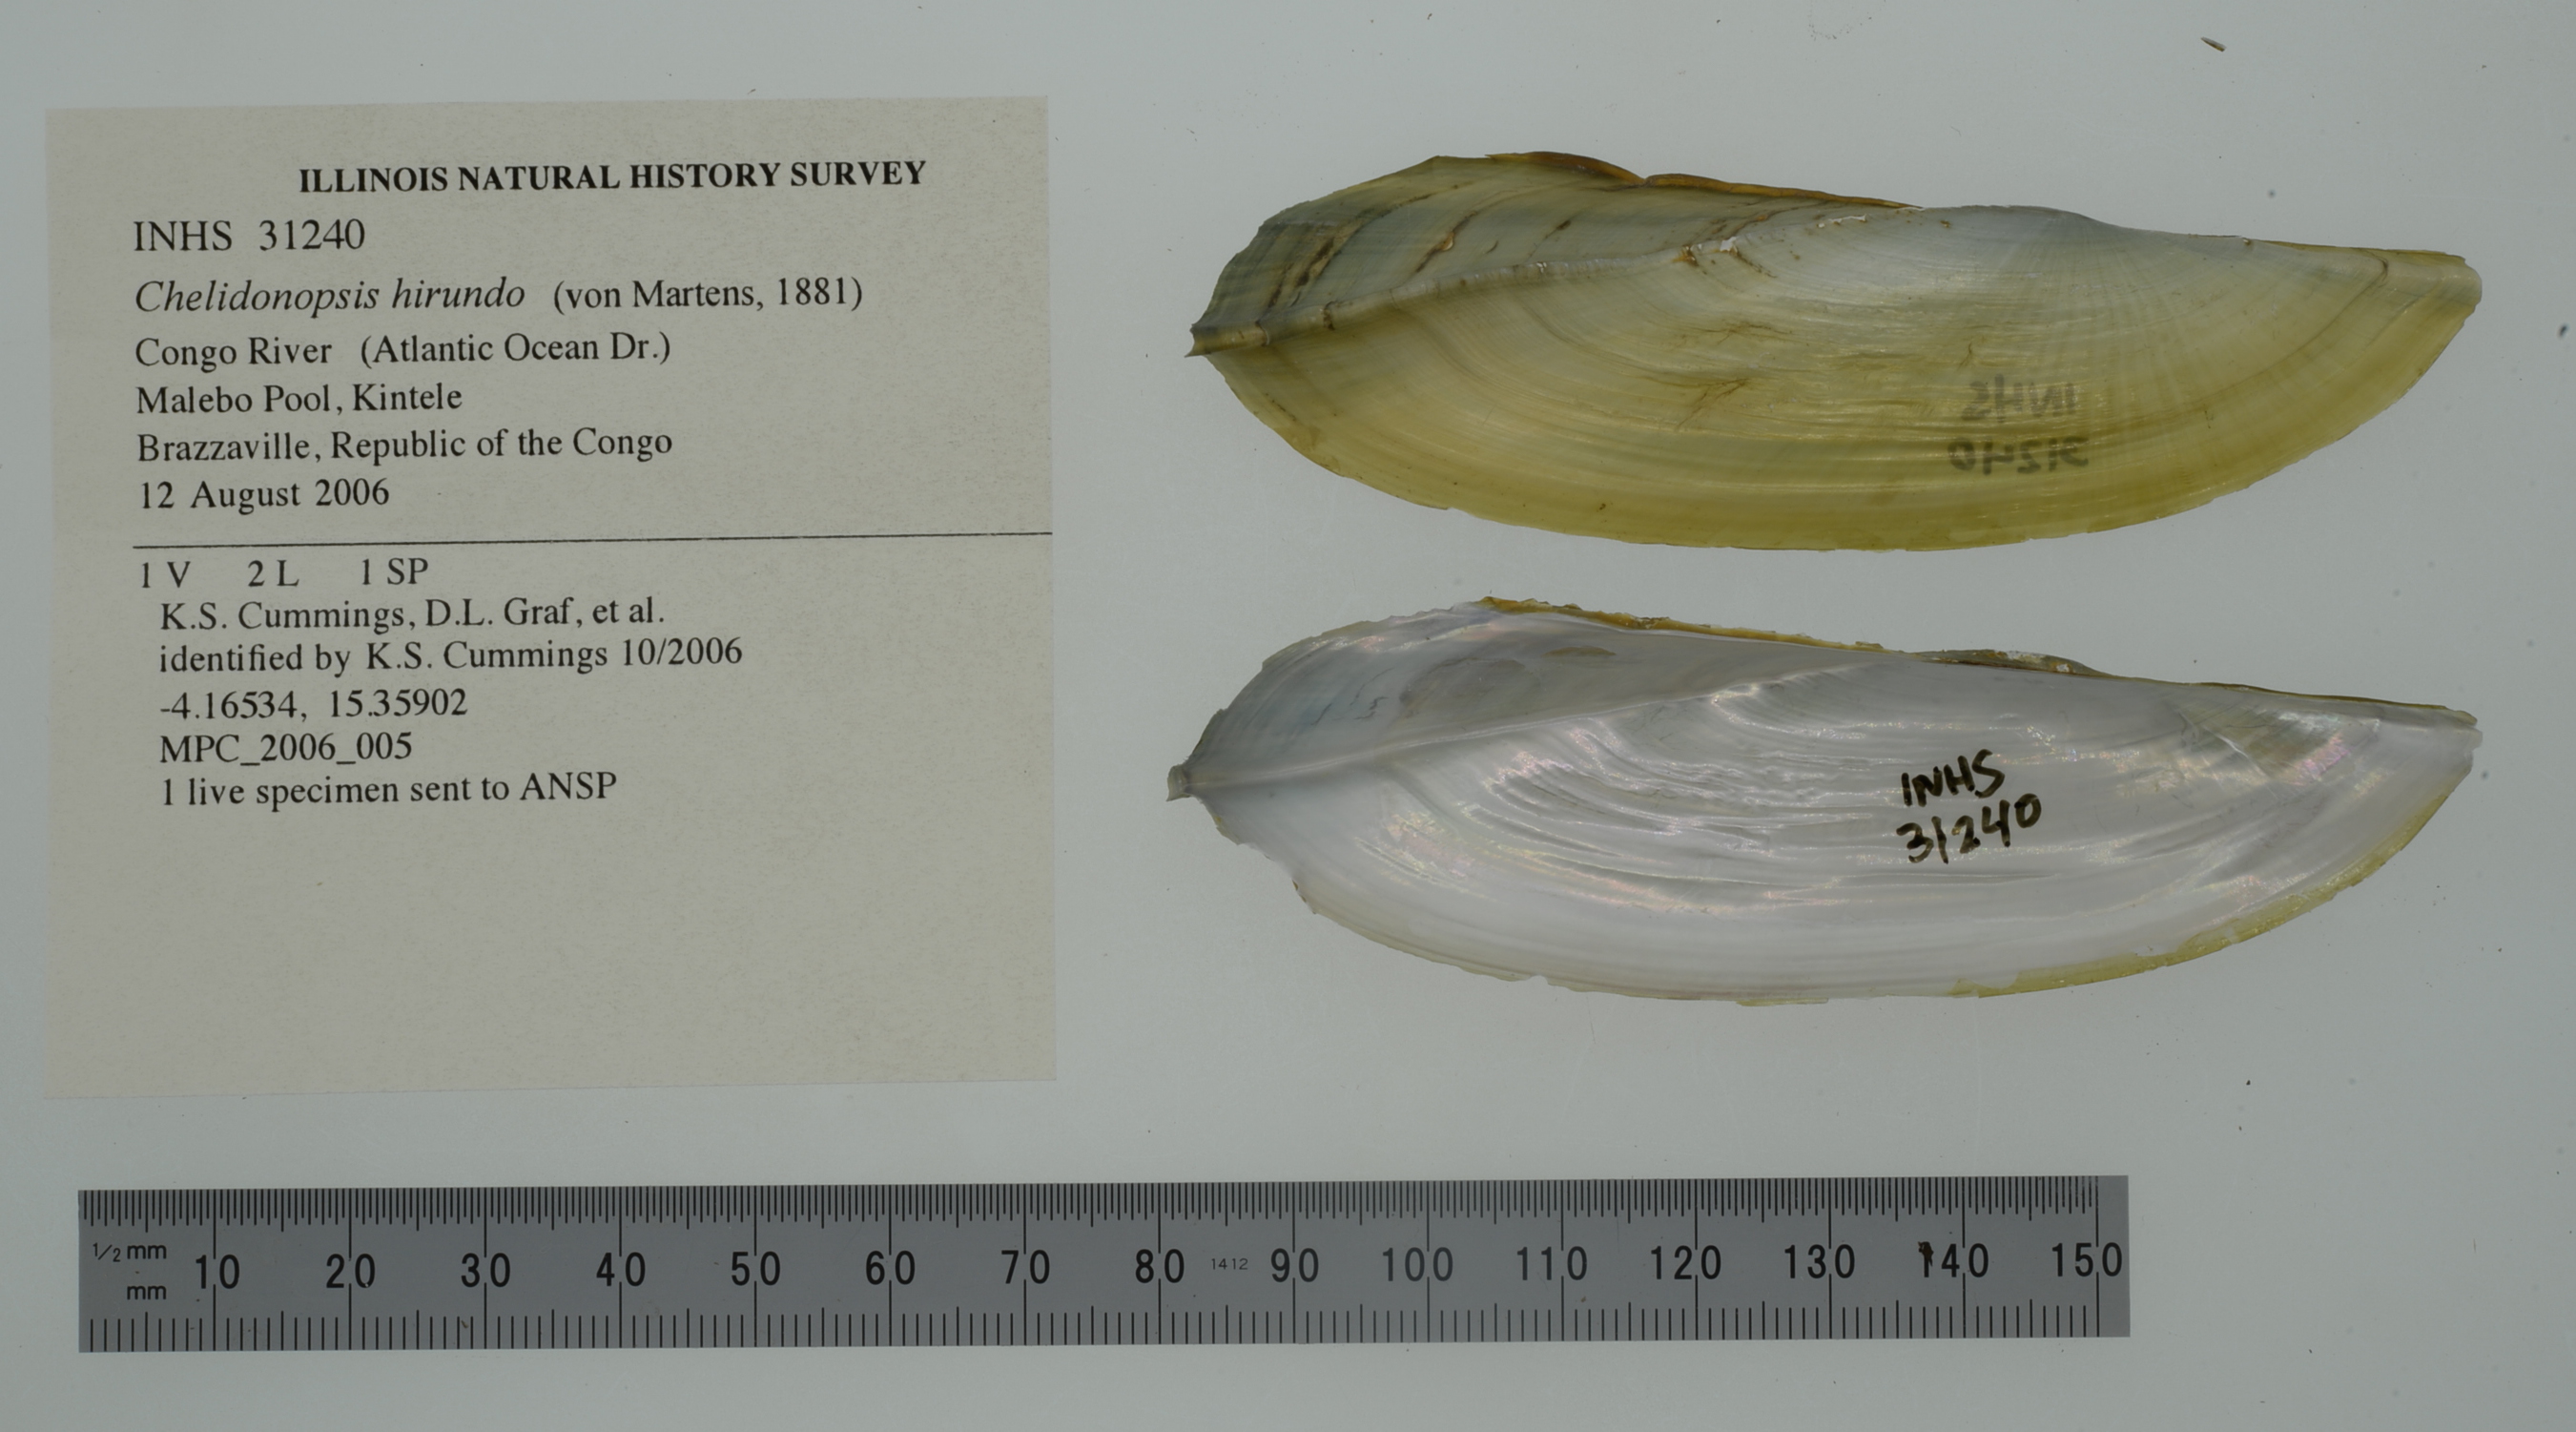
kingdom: Animalia
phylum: Mollusca
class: Bivalvia
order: Unionida
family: Unionidae
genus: Tritogonia
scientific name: Tritogonia nobilis
